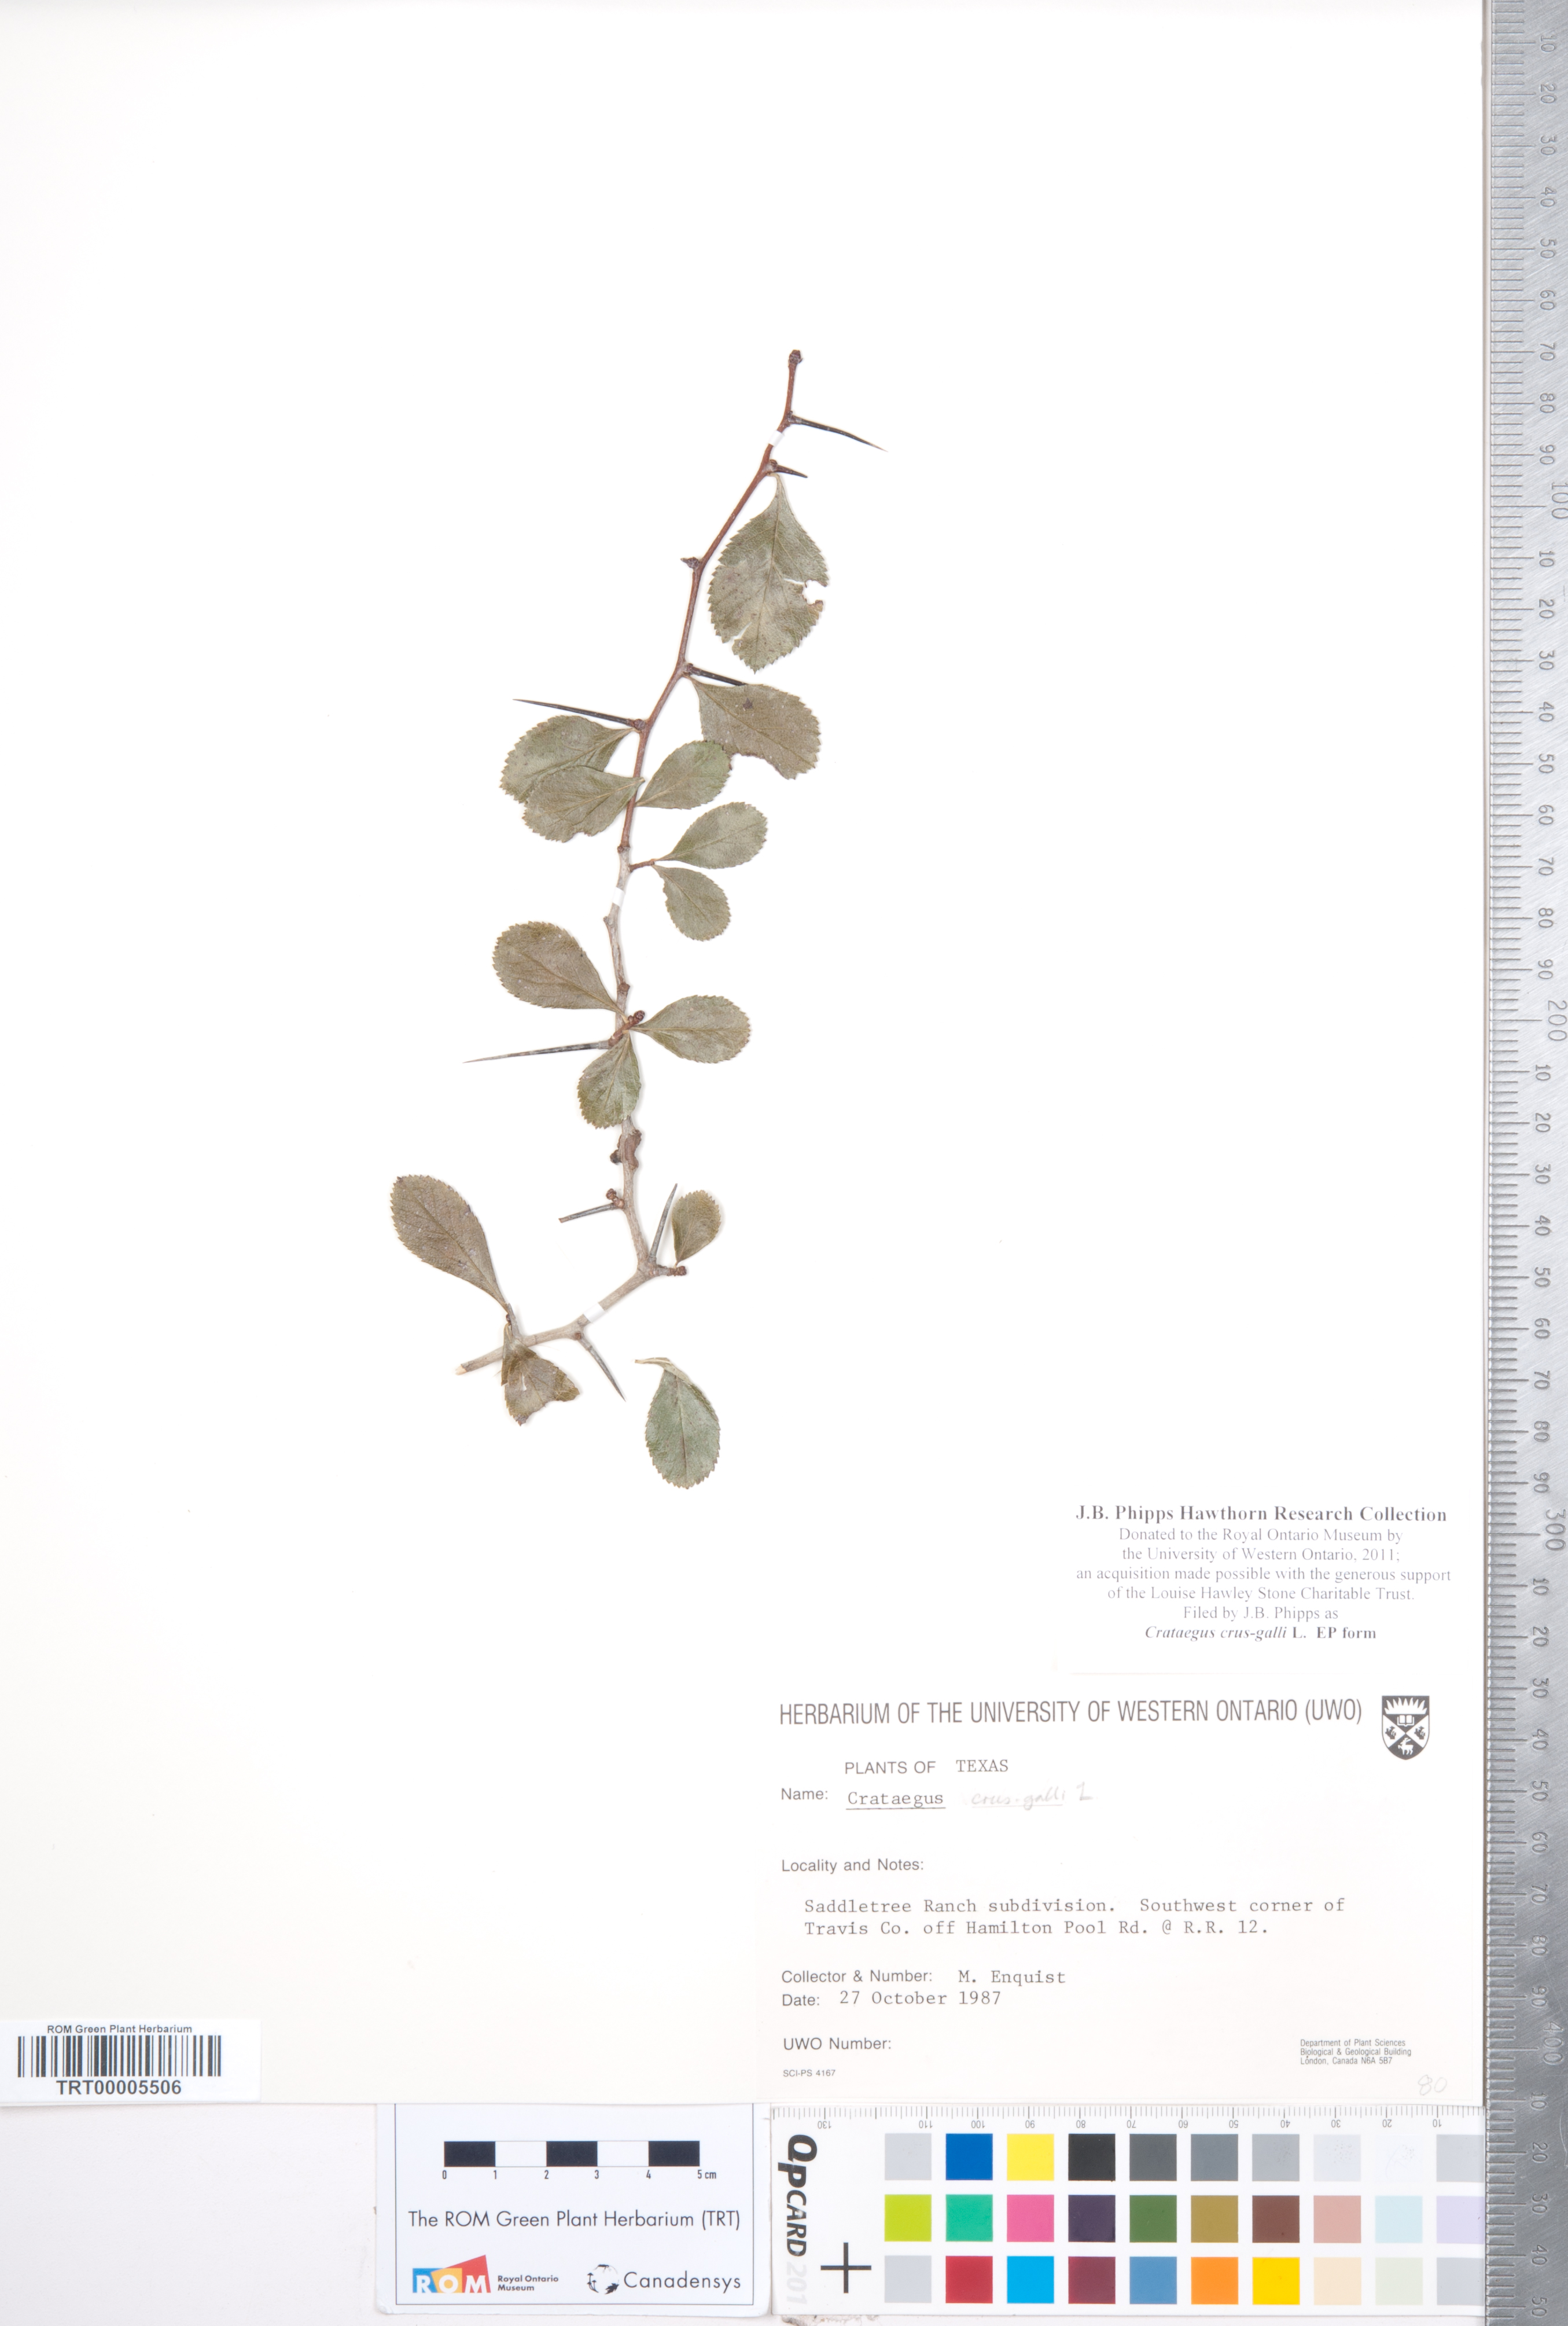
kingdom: Plantae
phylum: Tracheophyta
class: Magnoliopsida
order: Rosales
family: Rosaceae
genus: Crataegus
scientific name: Crataegus crus-galli
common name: Cockspurthorn
